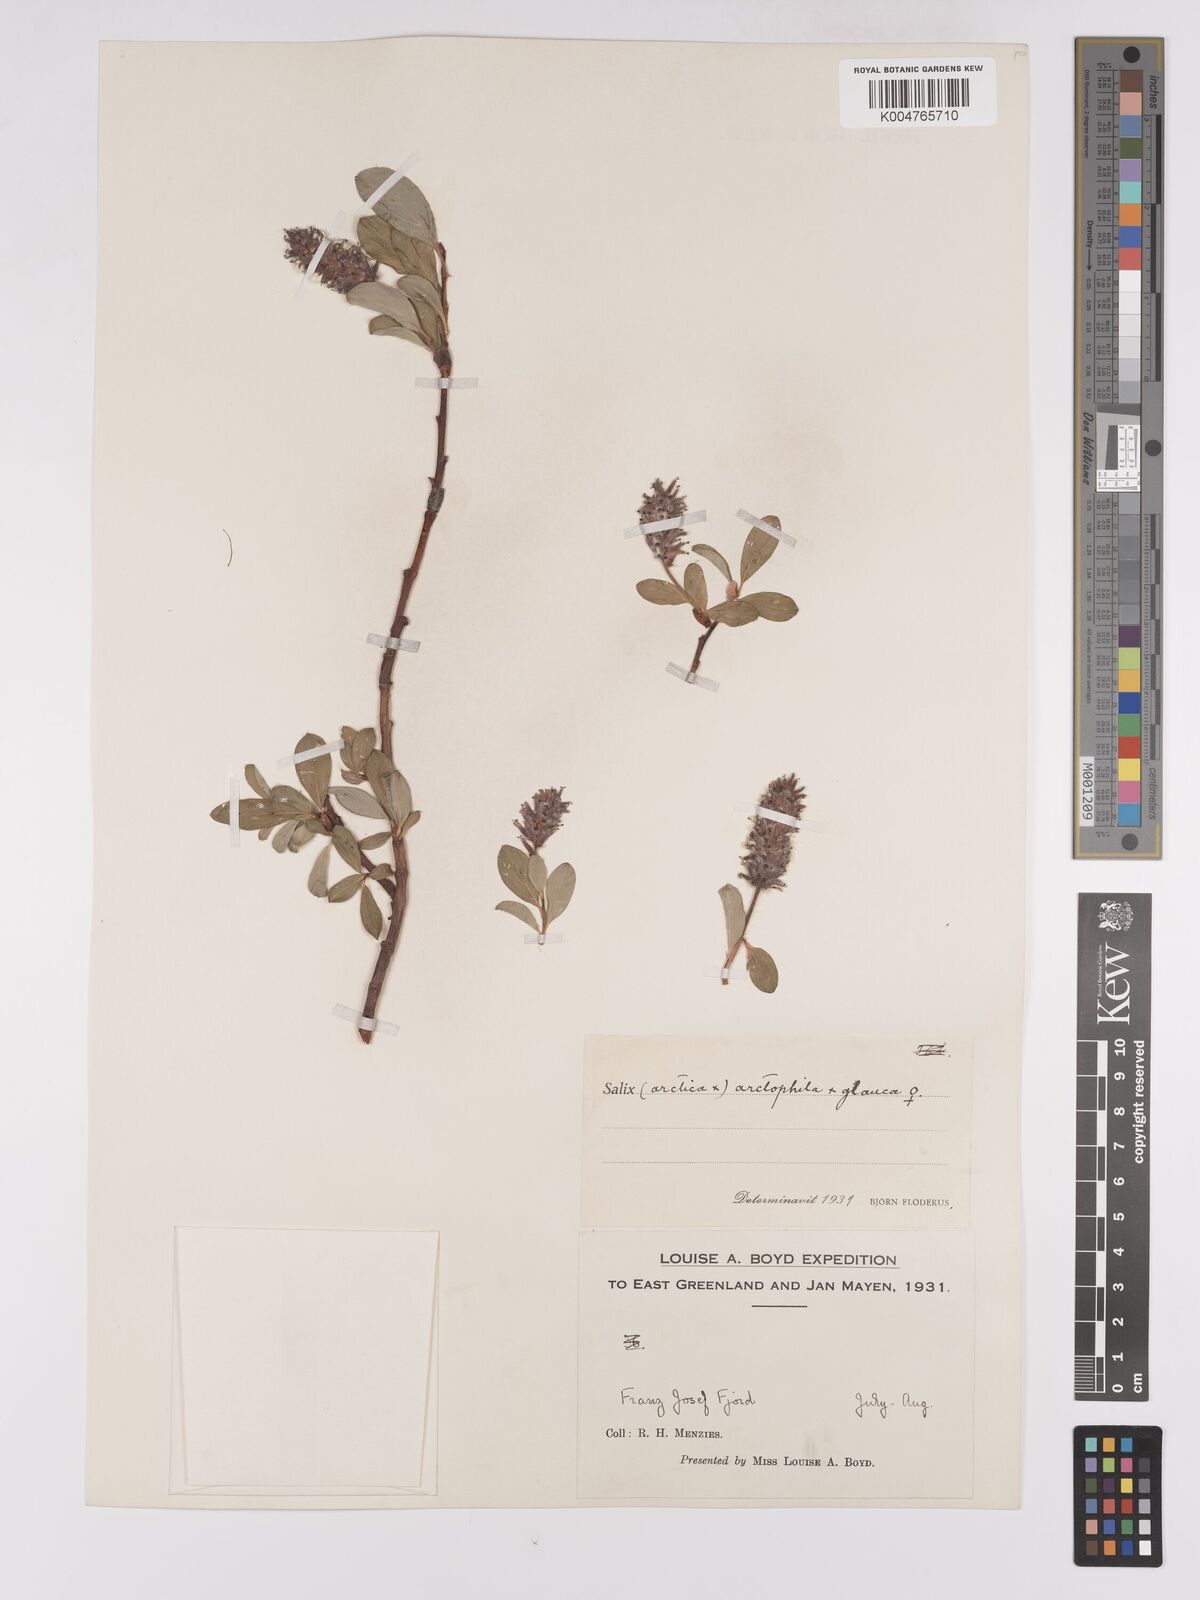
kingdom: Plantae
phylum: Tracheophyta
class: Magnoliopsida
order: Malpighiales
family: Salicaceae
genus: Salix
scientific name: Salix arctophila
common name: Greenland willow
